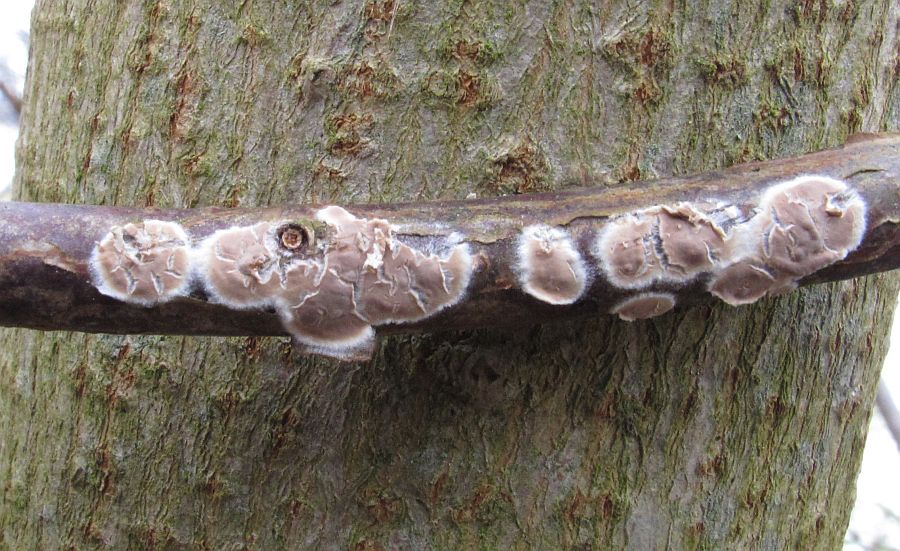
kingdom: Fungi
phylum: Basidiomycota
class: Agaricomycetes
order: Agaricales
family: Physalacriaceae
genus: Cylindrobasidium
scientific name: Cylindrobasidium evolvens
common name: sprækkehinde
